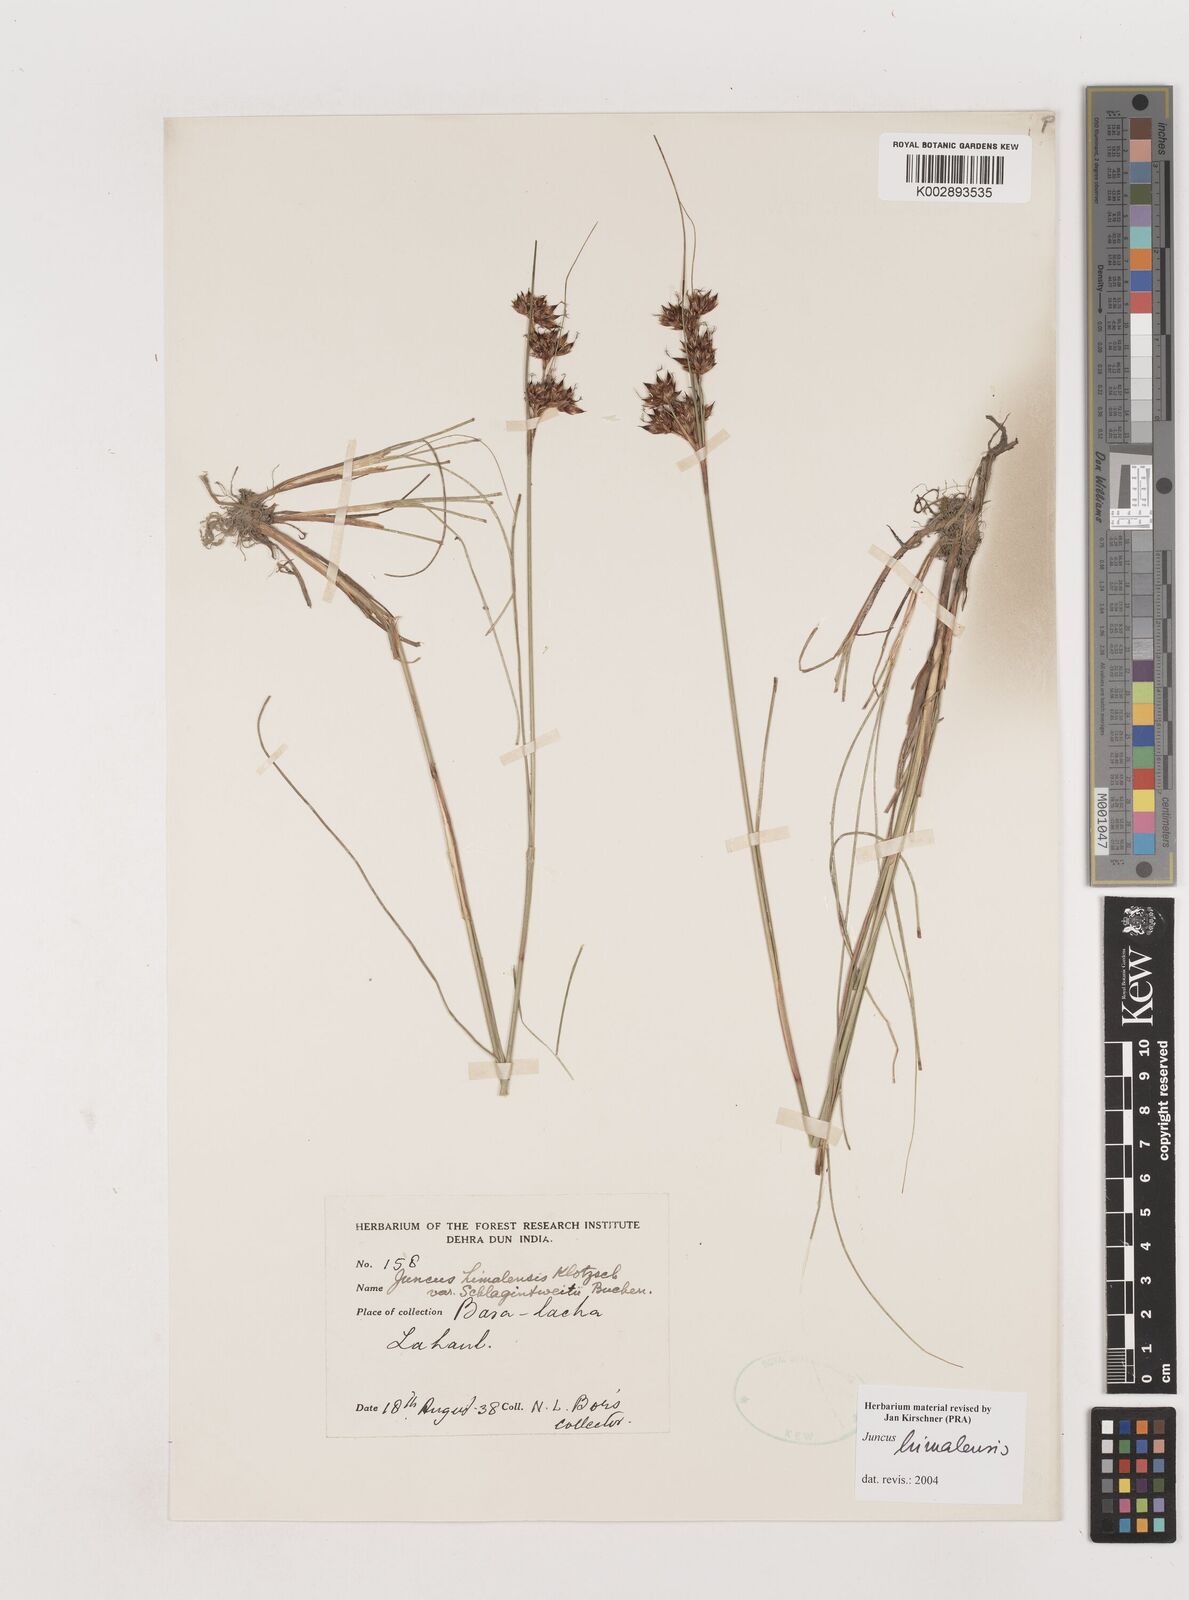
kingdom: Plantae
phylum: Tracheophyta
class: Liliopsida
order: Poales
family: Juncaceae
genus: Juncus
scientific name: Juncus himalensis
